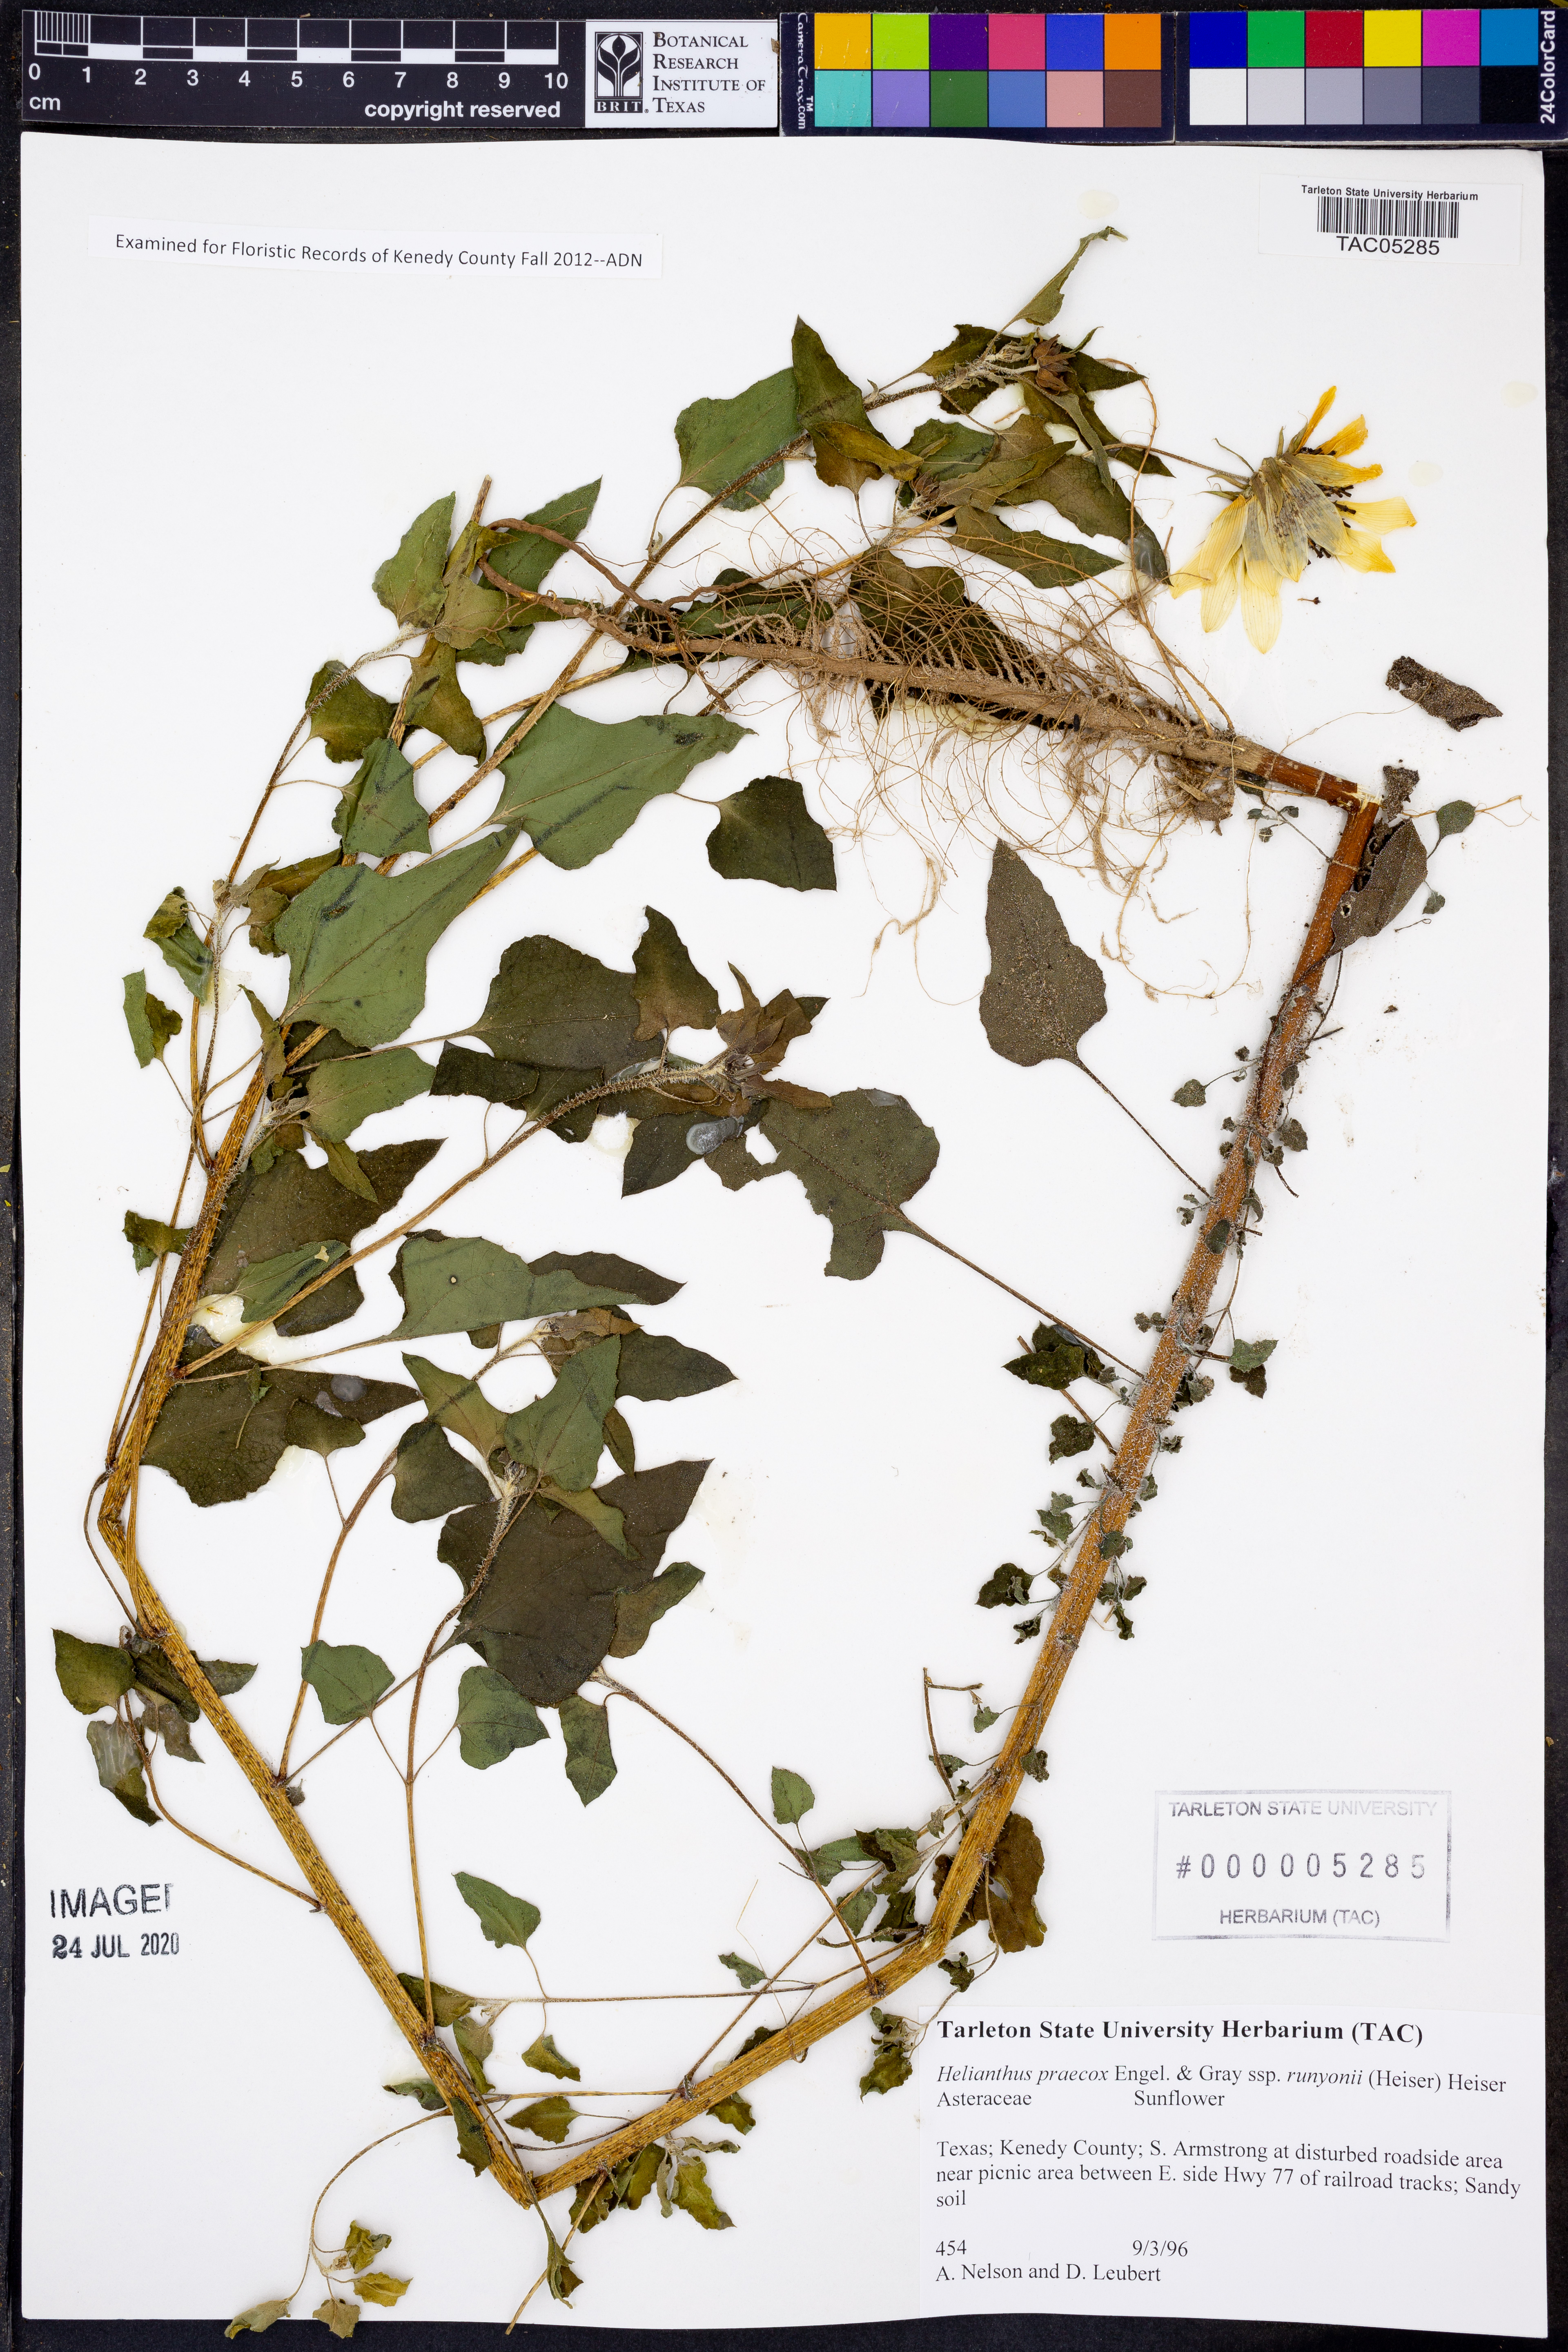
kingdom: Plantae
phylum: Tracheophyta
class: Magnoliopsida
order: Asterales
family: Asteraceae
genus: Helianthus
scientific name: Helianthus praecox
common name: Texas sunflower
